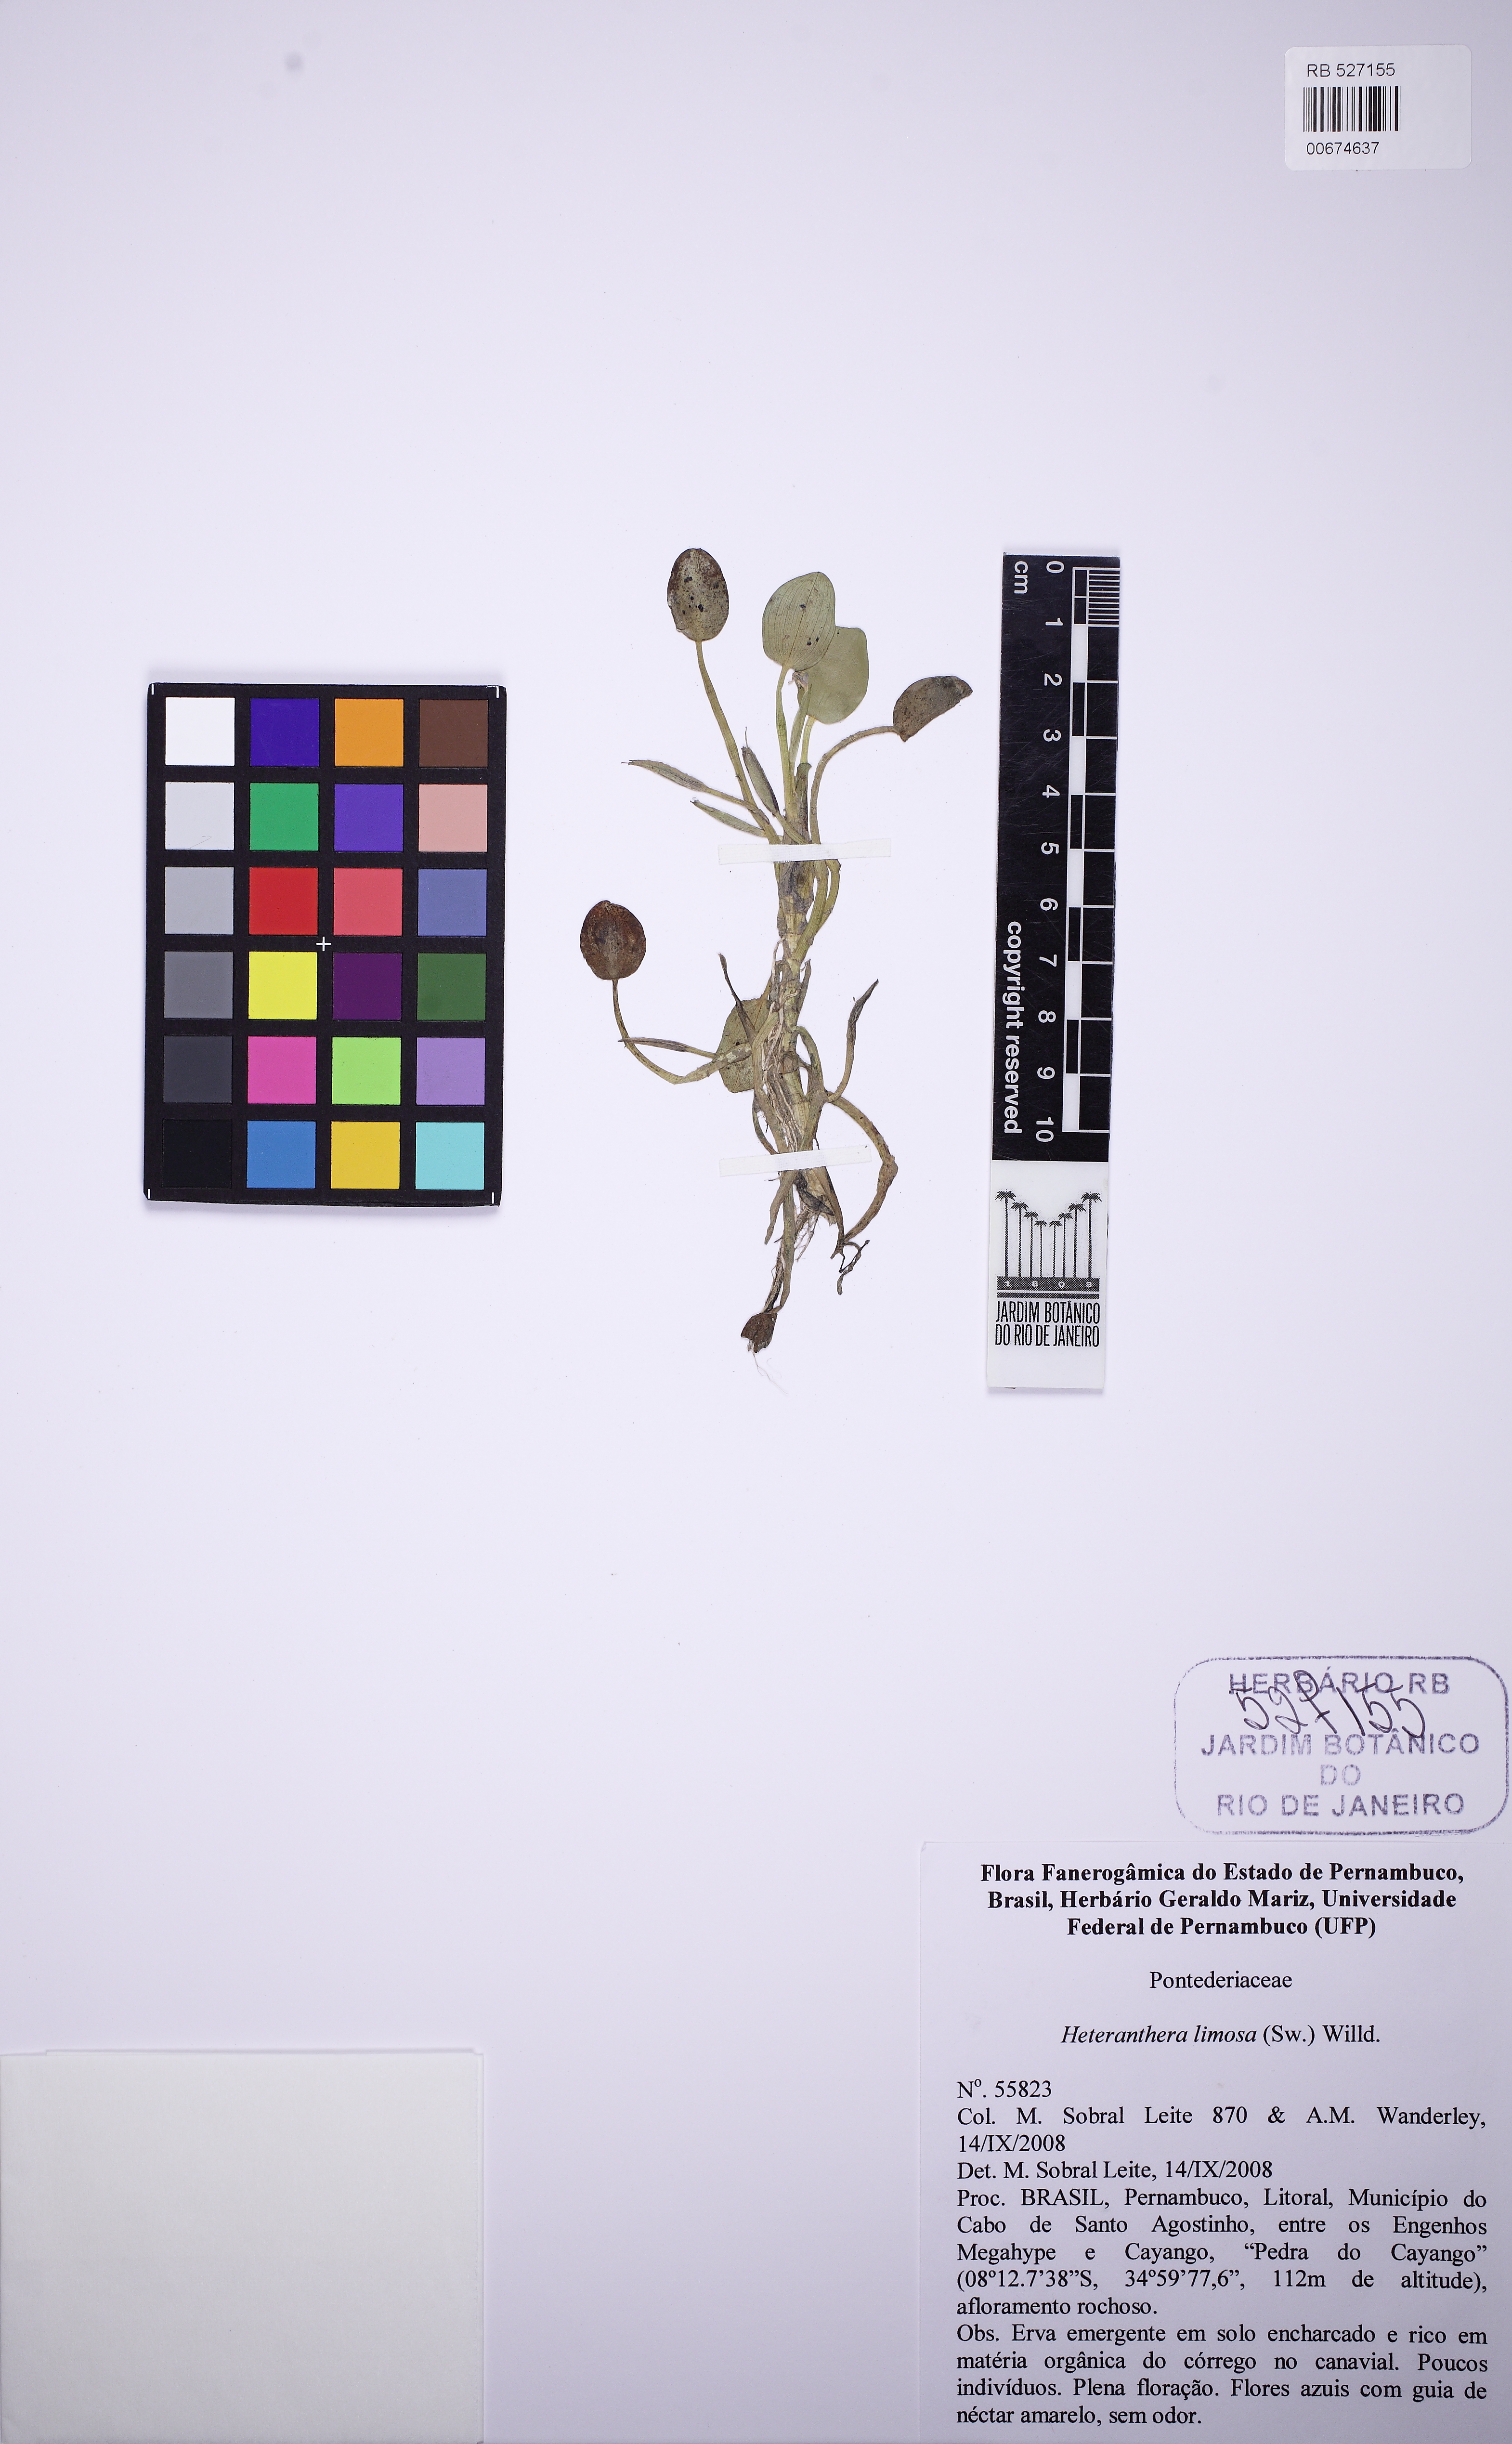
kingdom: Plantae
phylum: Tracheophyta
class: Liliopsida
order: Commelinales
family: Pontederiaceae
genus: Heteranthera
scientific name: Heteranthera rotundifolia
